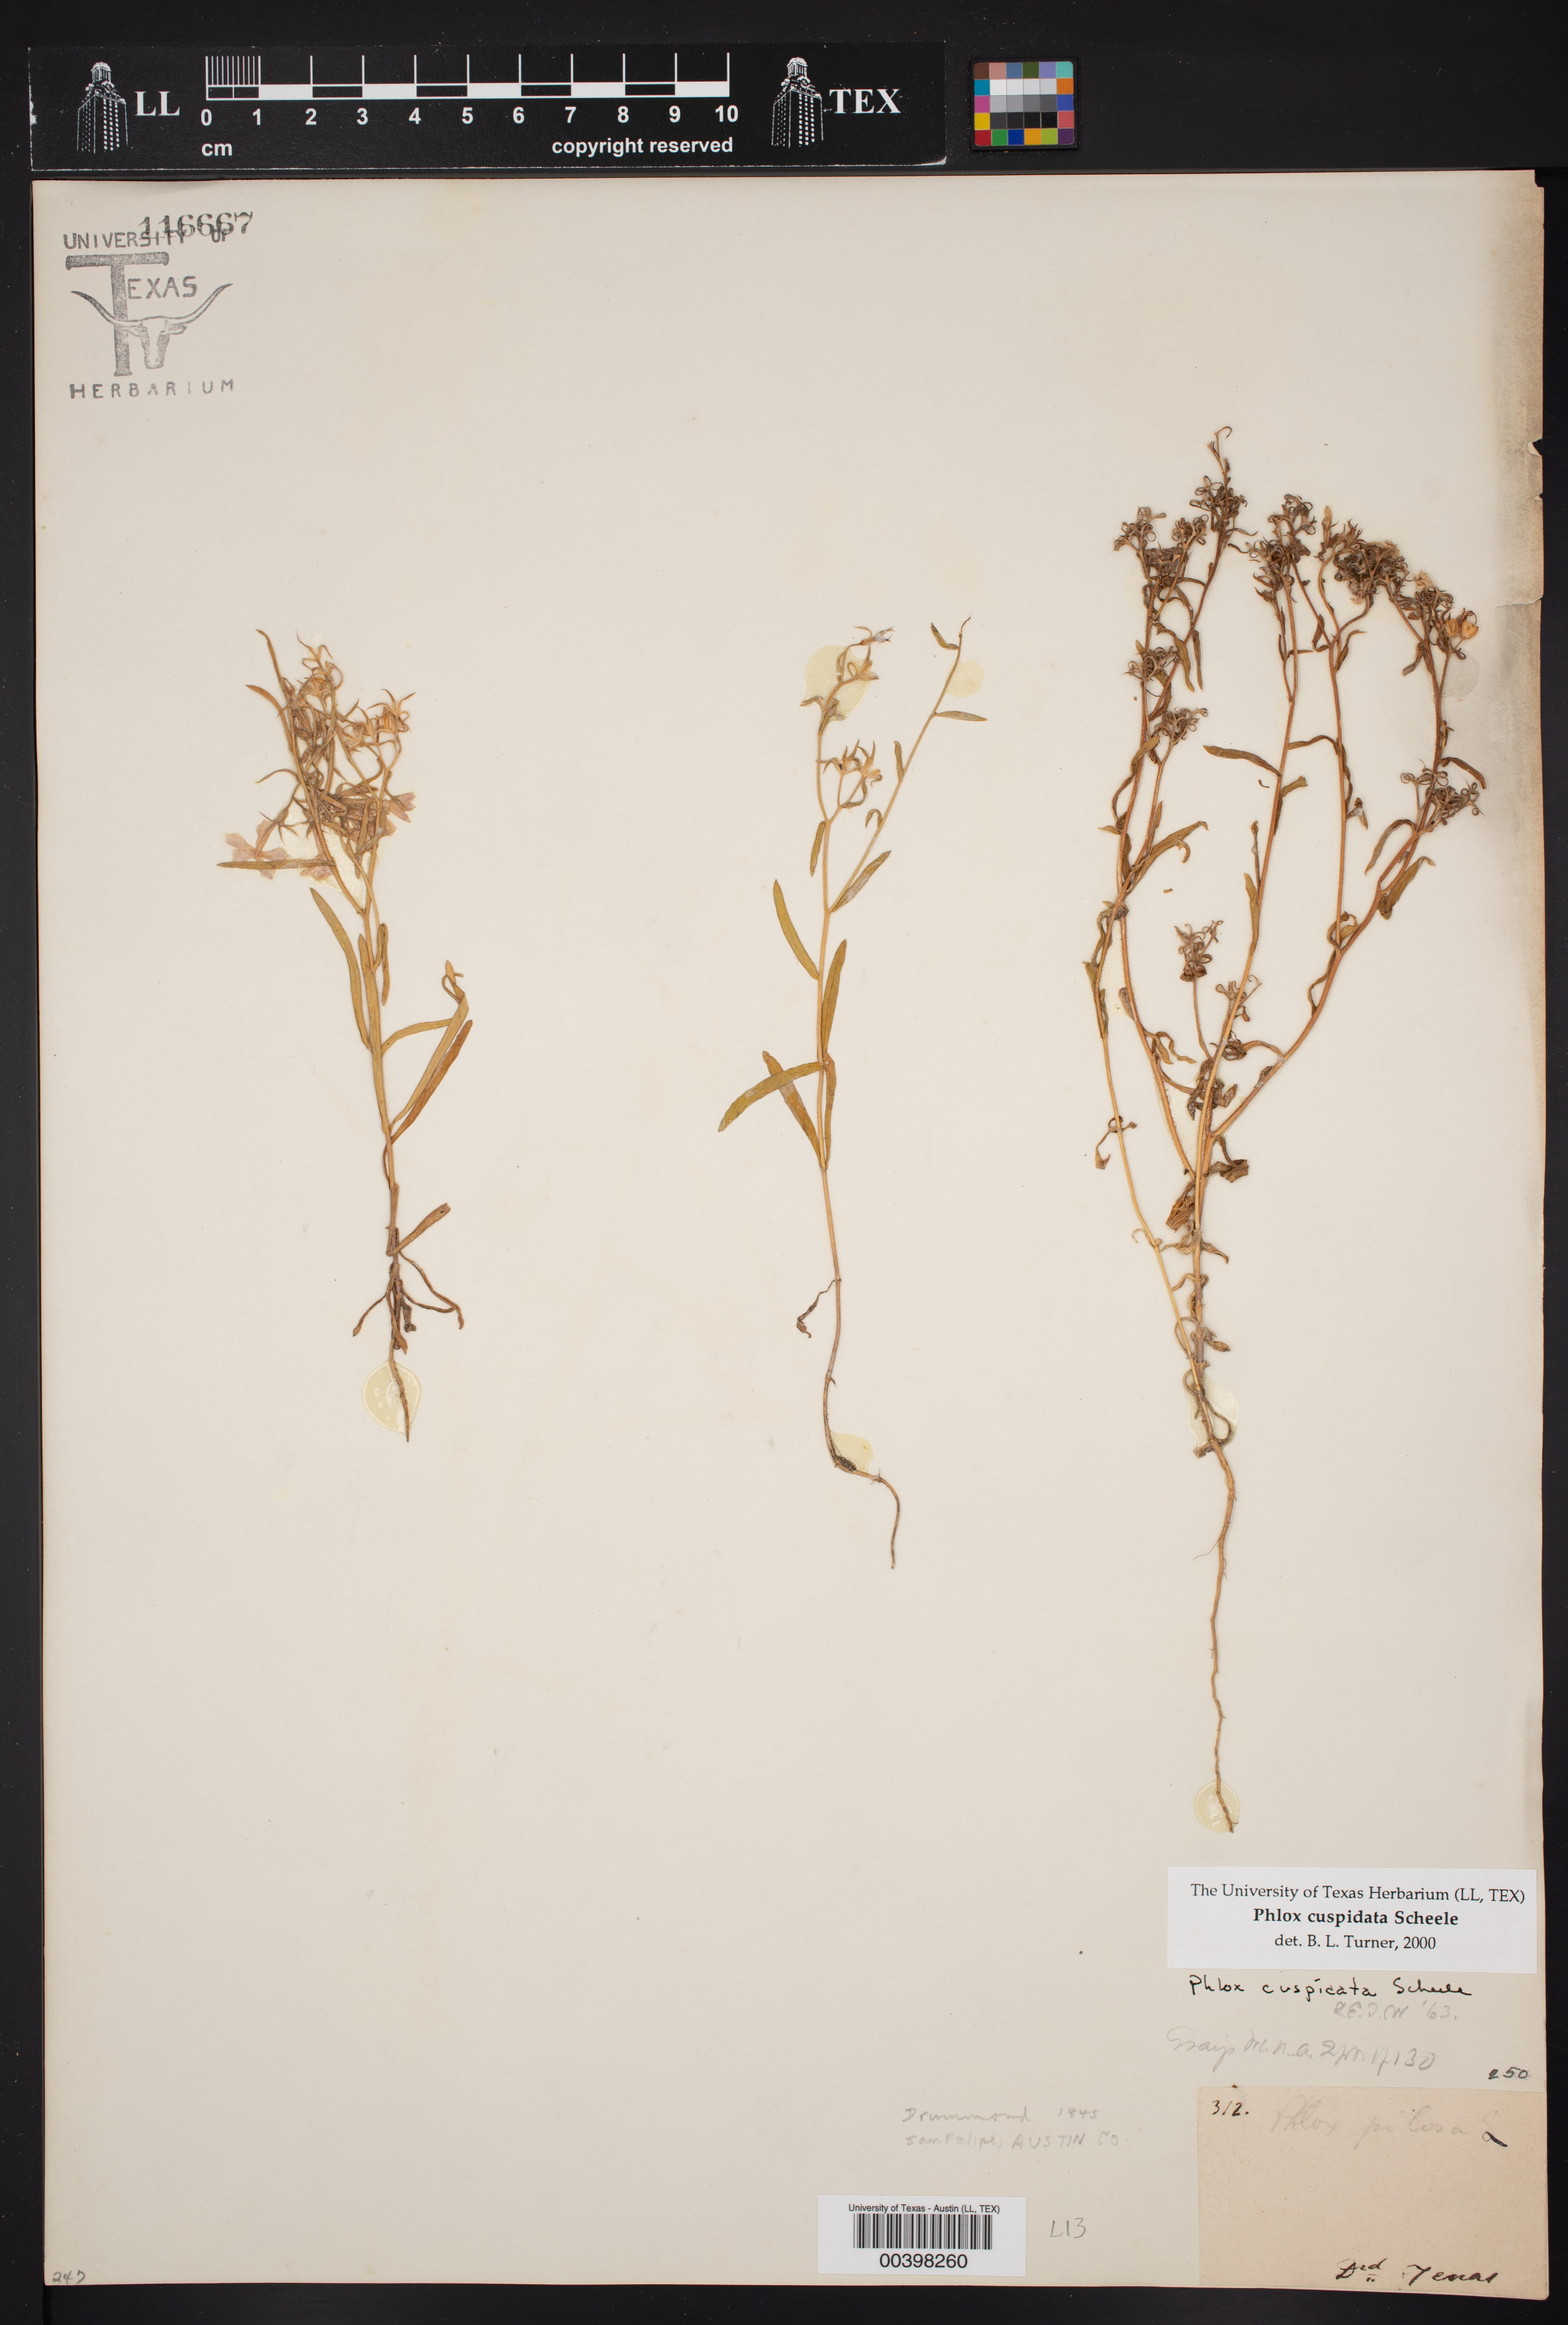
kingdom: Plantae
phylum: Tracheophyta
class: Magnoliopsida
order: Ericales
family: Polemoniaceae
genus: Phlox
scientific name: Phlox cuspidata
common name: Pointed phlox
